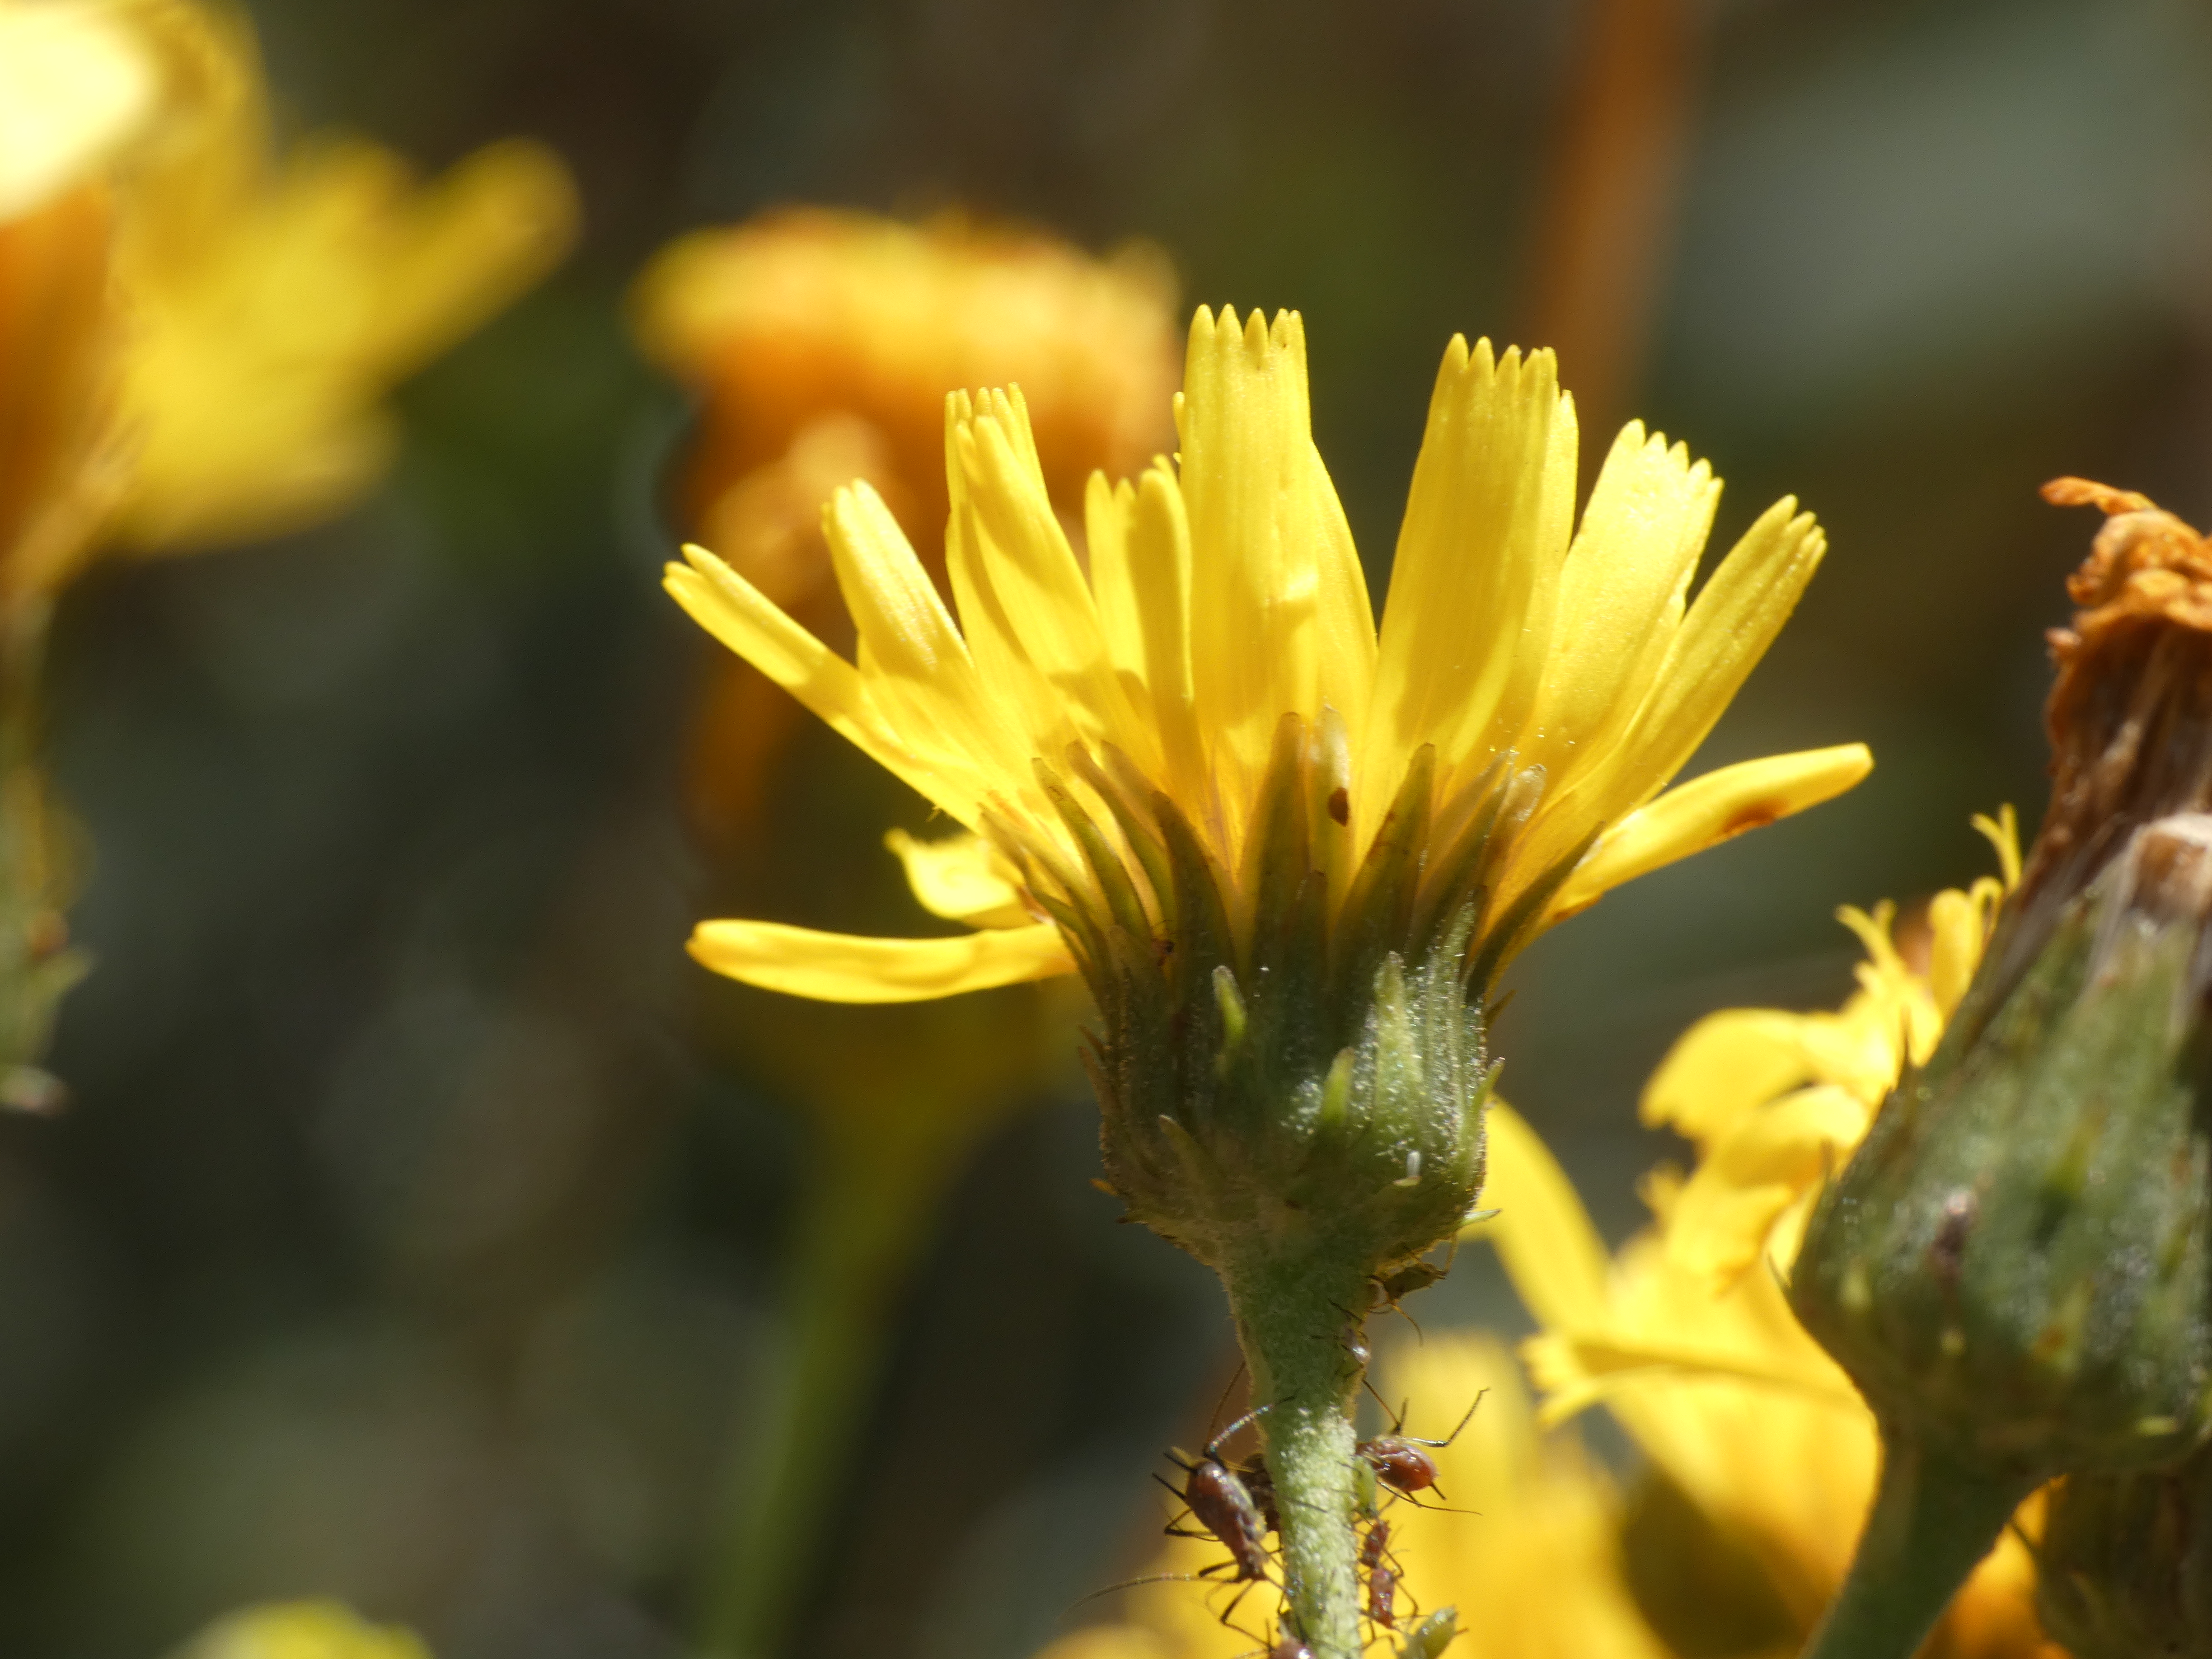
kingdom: Plantae
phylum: Tracheophyta
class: Magnoliopsida
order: Asterales
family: Asteraceae
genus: Hieracium
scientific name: Hieracium umbellatum
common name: Smalbladet høgeurt
